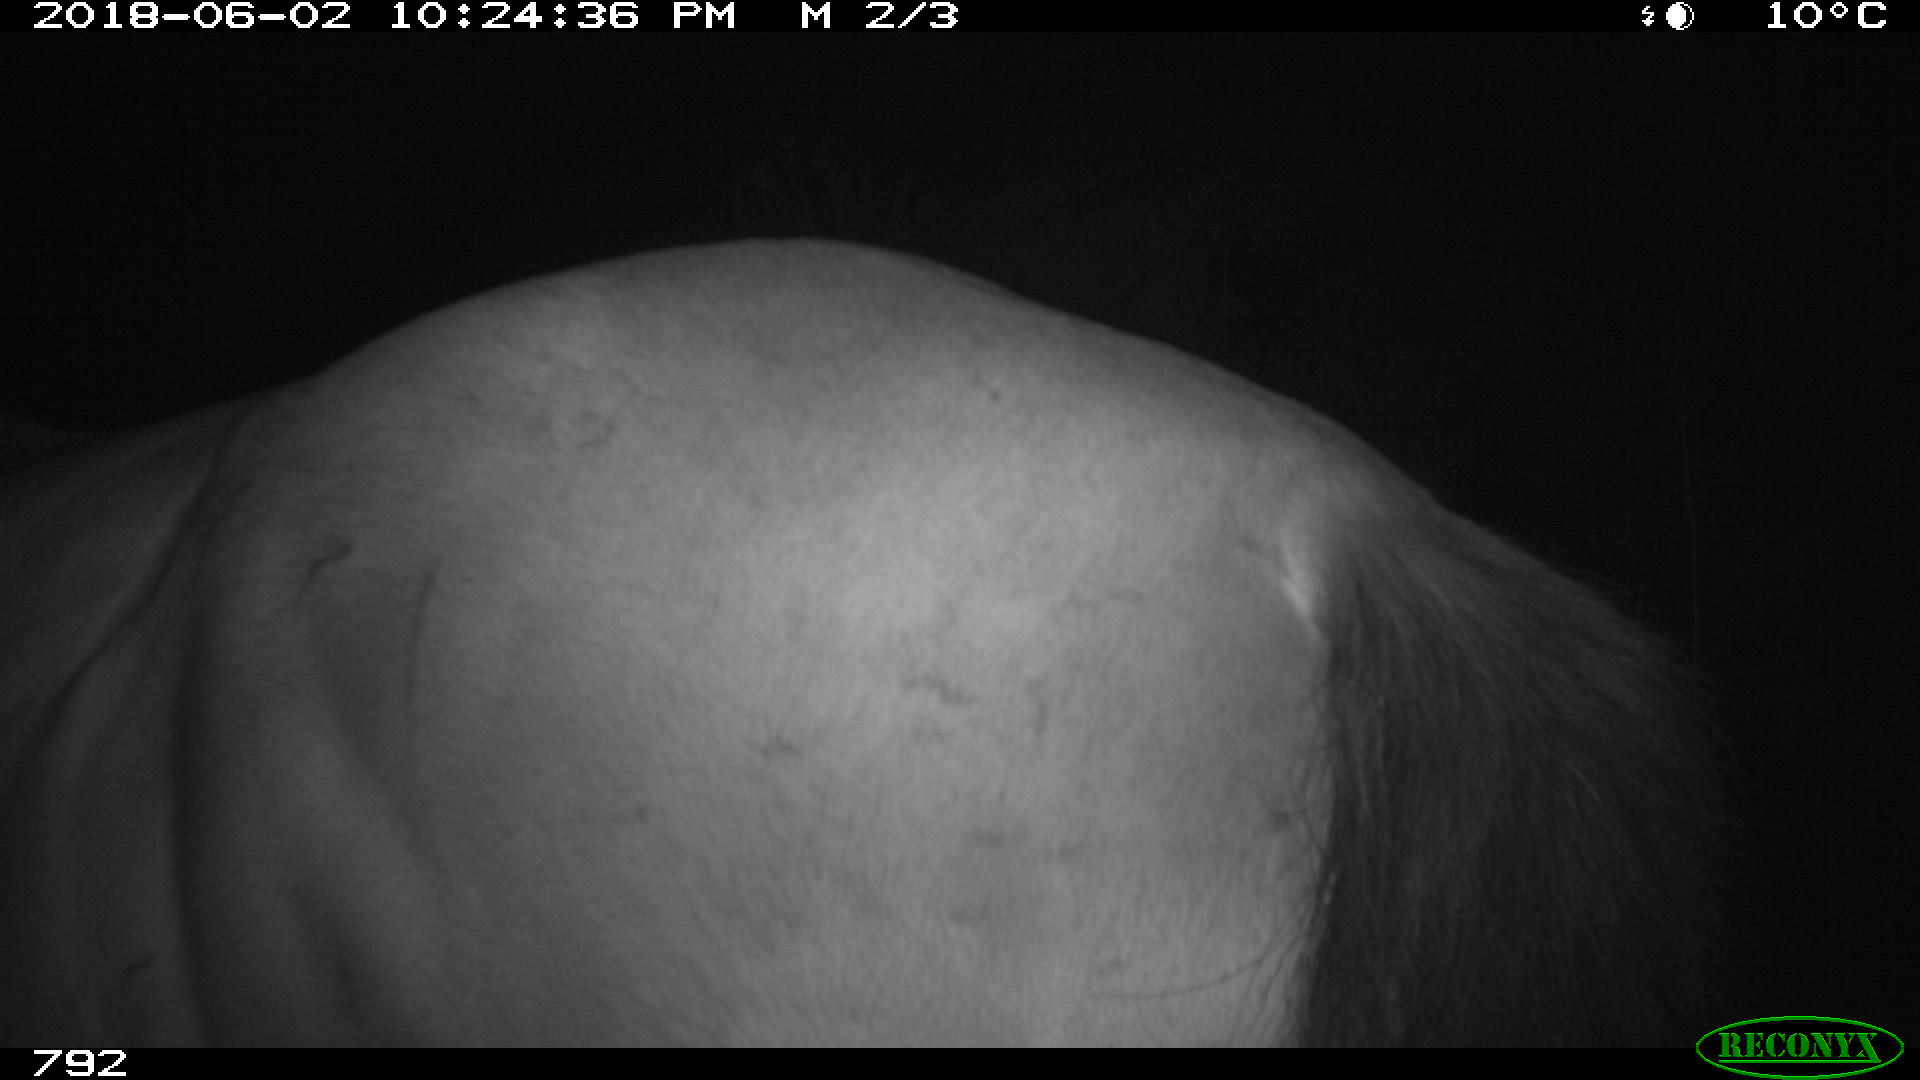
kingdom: Animalia
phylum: Chordata
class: Mammalia
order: Perissodactyla
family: Equidae
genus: Equus
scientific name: Equus caballus
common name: Horse
